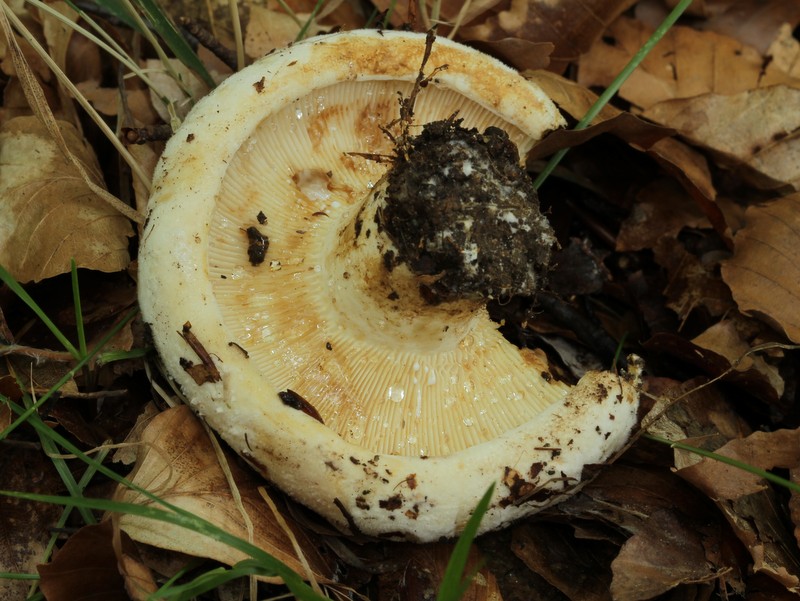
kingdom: Fungi
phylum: Basidiomycota
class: Agaricomycetes
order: Russulales
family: Russulaceae
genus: Lactifluus
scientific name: Lactifluus vellereus
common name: hvidfiltet mælkehat
